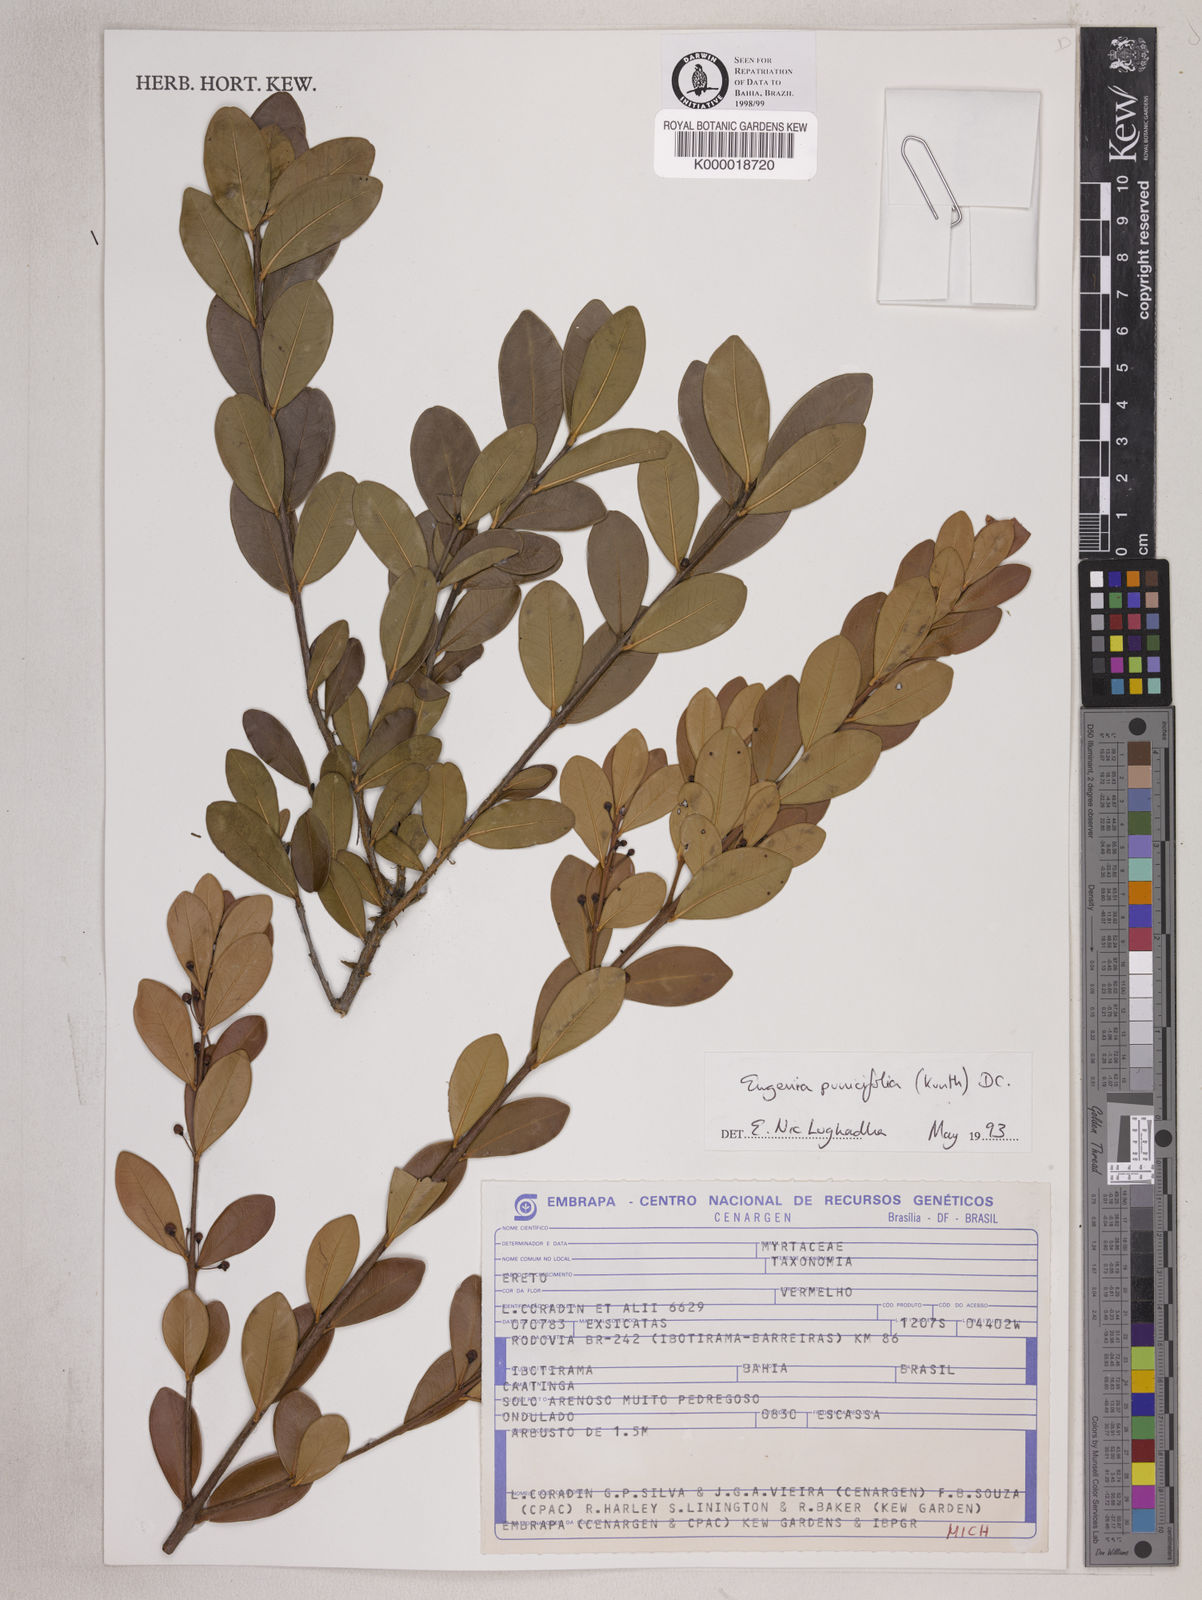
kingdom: Plantae
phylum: Tracheophyta
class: Magnoliopsida
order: Myrtales
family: Myrtaceae
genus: Eugenia
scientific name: Eugenia punicifolia
